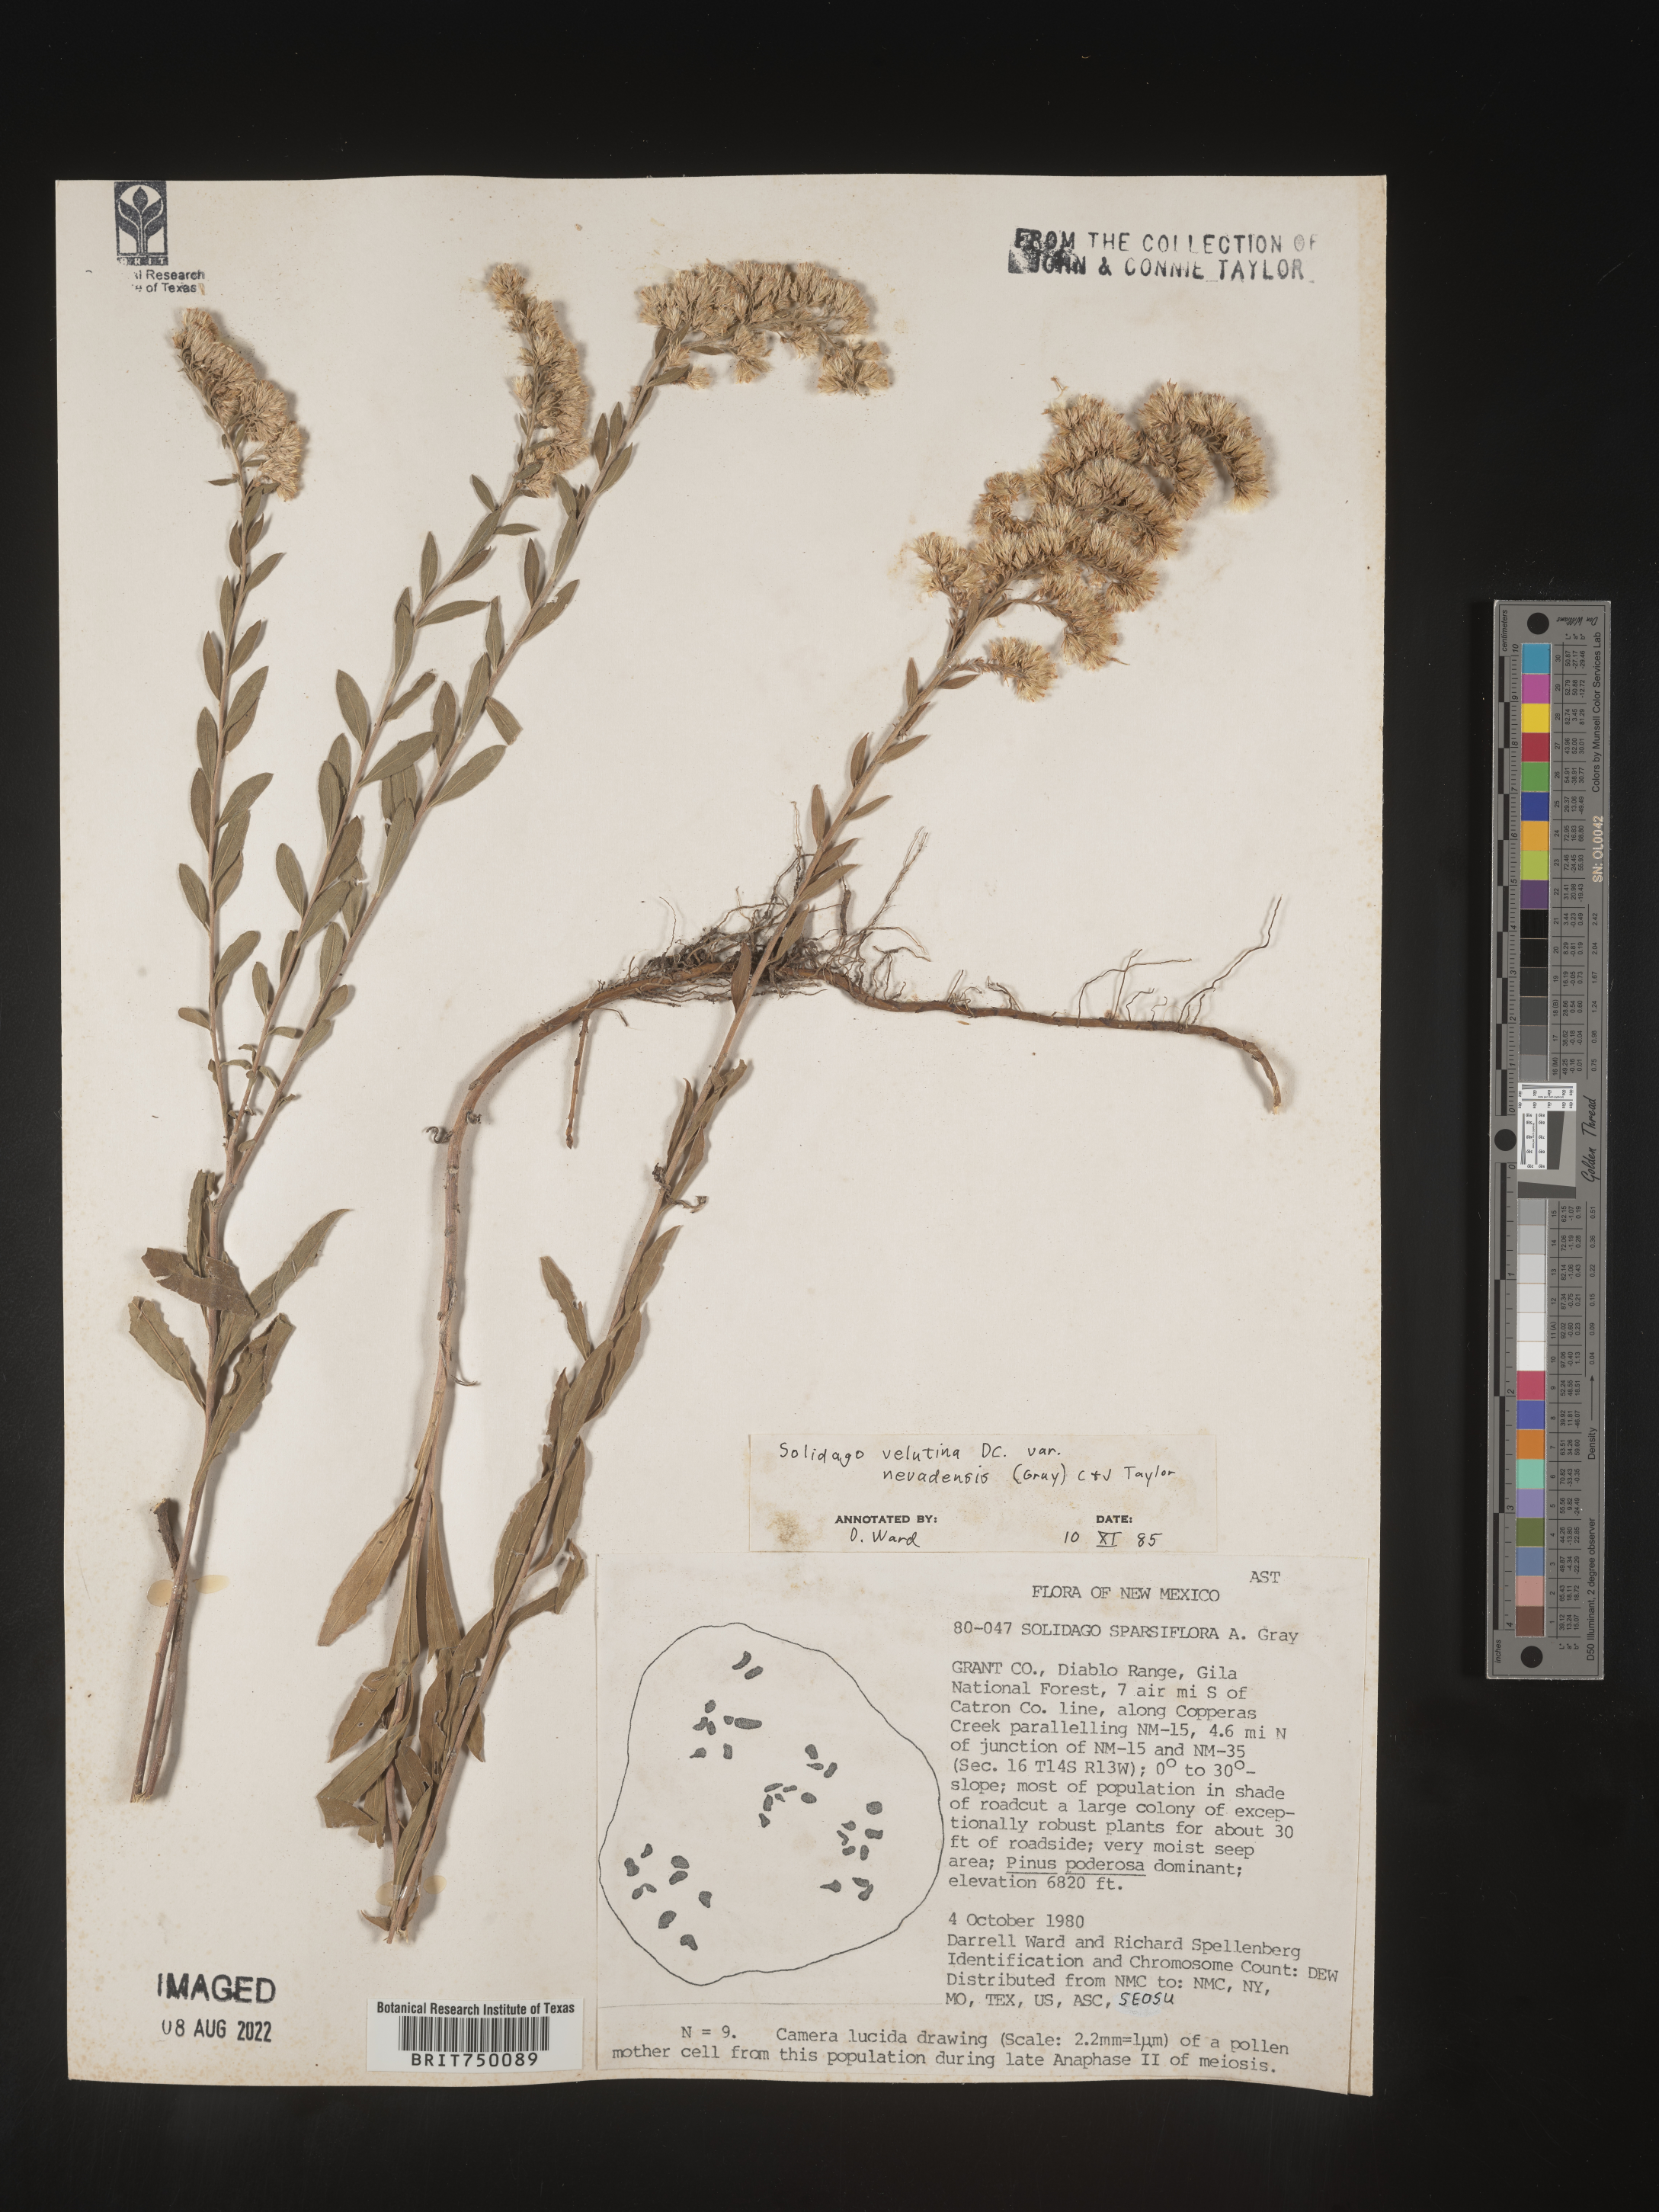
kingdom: Plantae
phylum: Tracheophyta
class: Magnoliopsida
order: Asterales
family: Asteraceae
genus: Solidago
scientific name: Solidago velutina
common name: Three-nerve goldenrod
